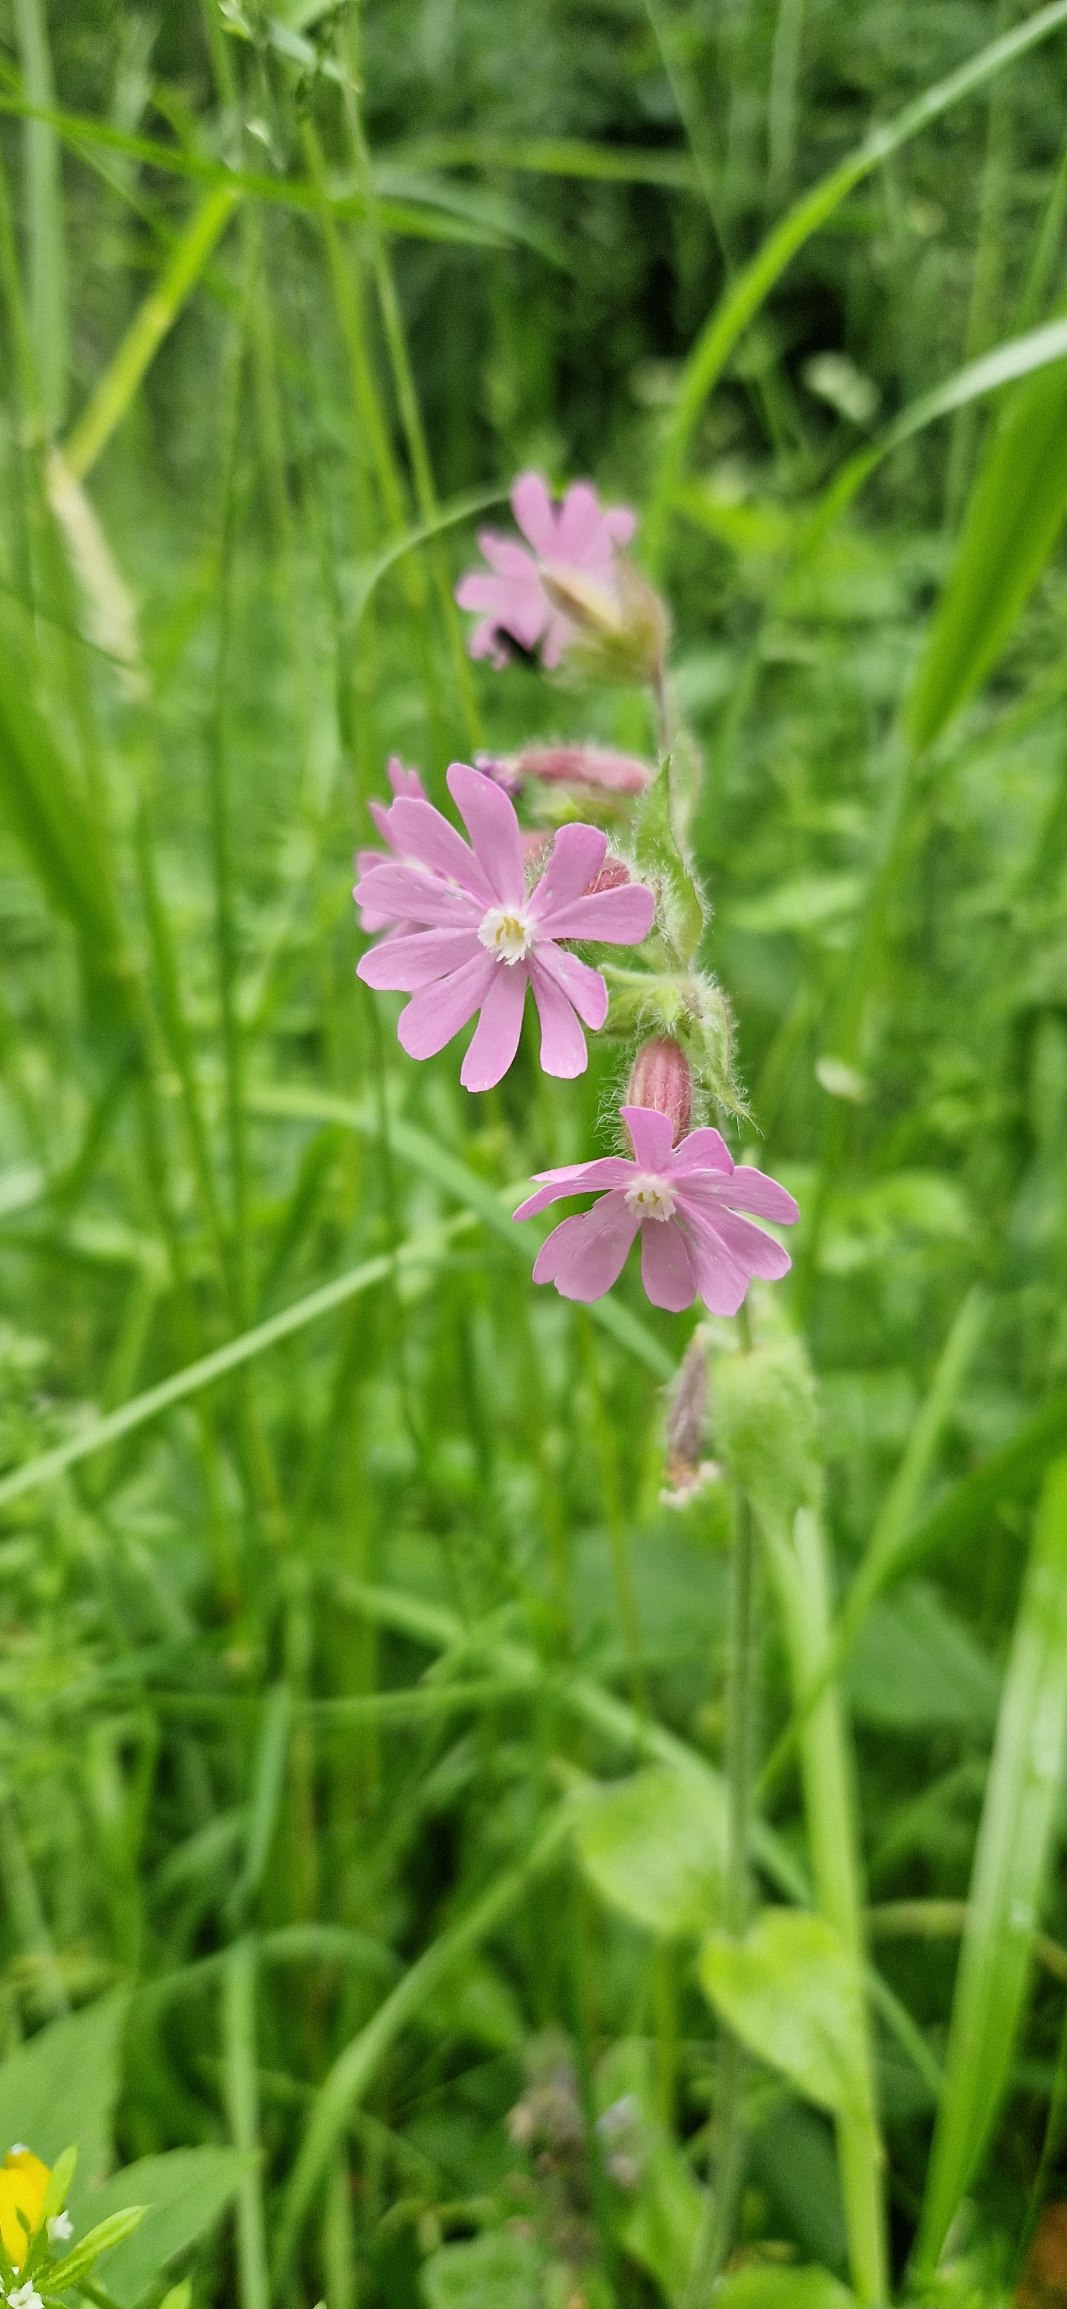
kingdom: Plantae
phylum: Tracheophyta
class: Magnoliopsida
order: Caryophyllales
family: Caryophyllaceae
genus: Silene
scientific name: Silene dioica
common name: Dagpragtstjerne
